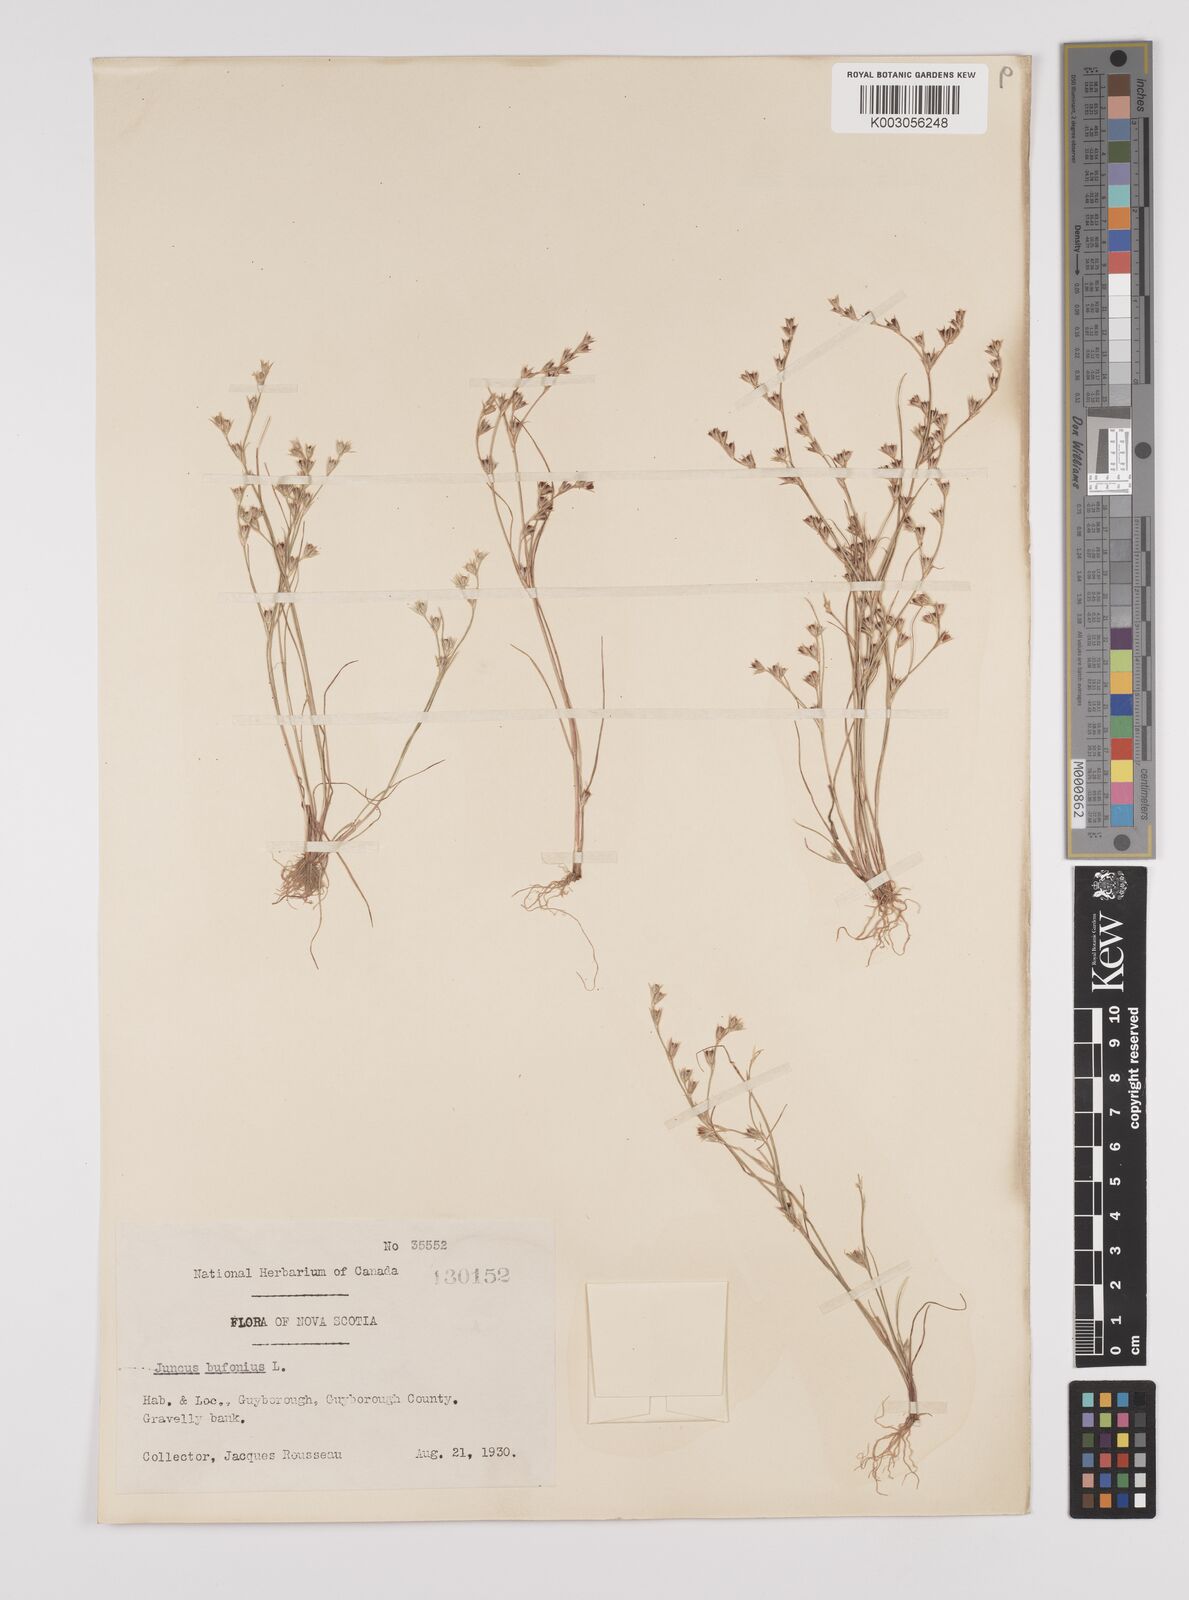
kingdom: Plantae
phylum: Tracheophyta
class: Liliopsida
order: Poales
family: Juncaceae
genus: Juncus
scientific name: Juncus bufonius
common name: Toad rush
